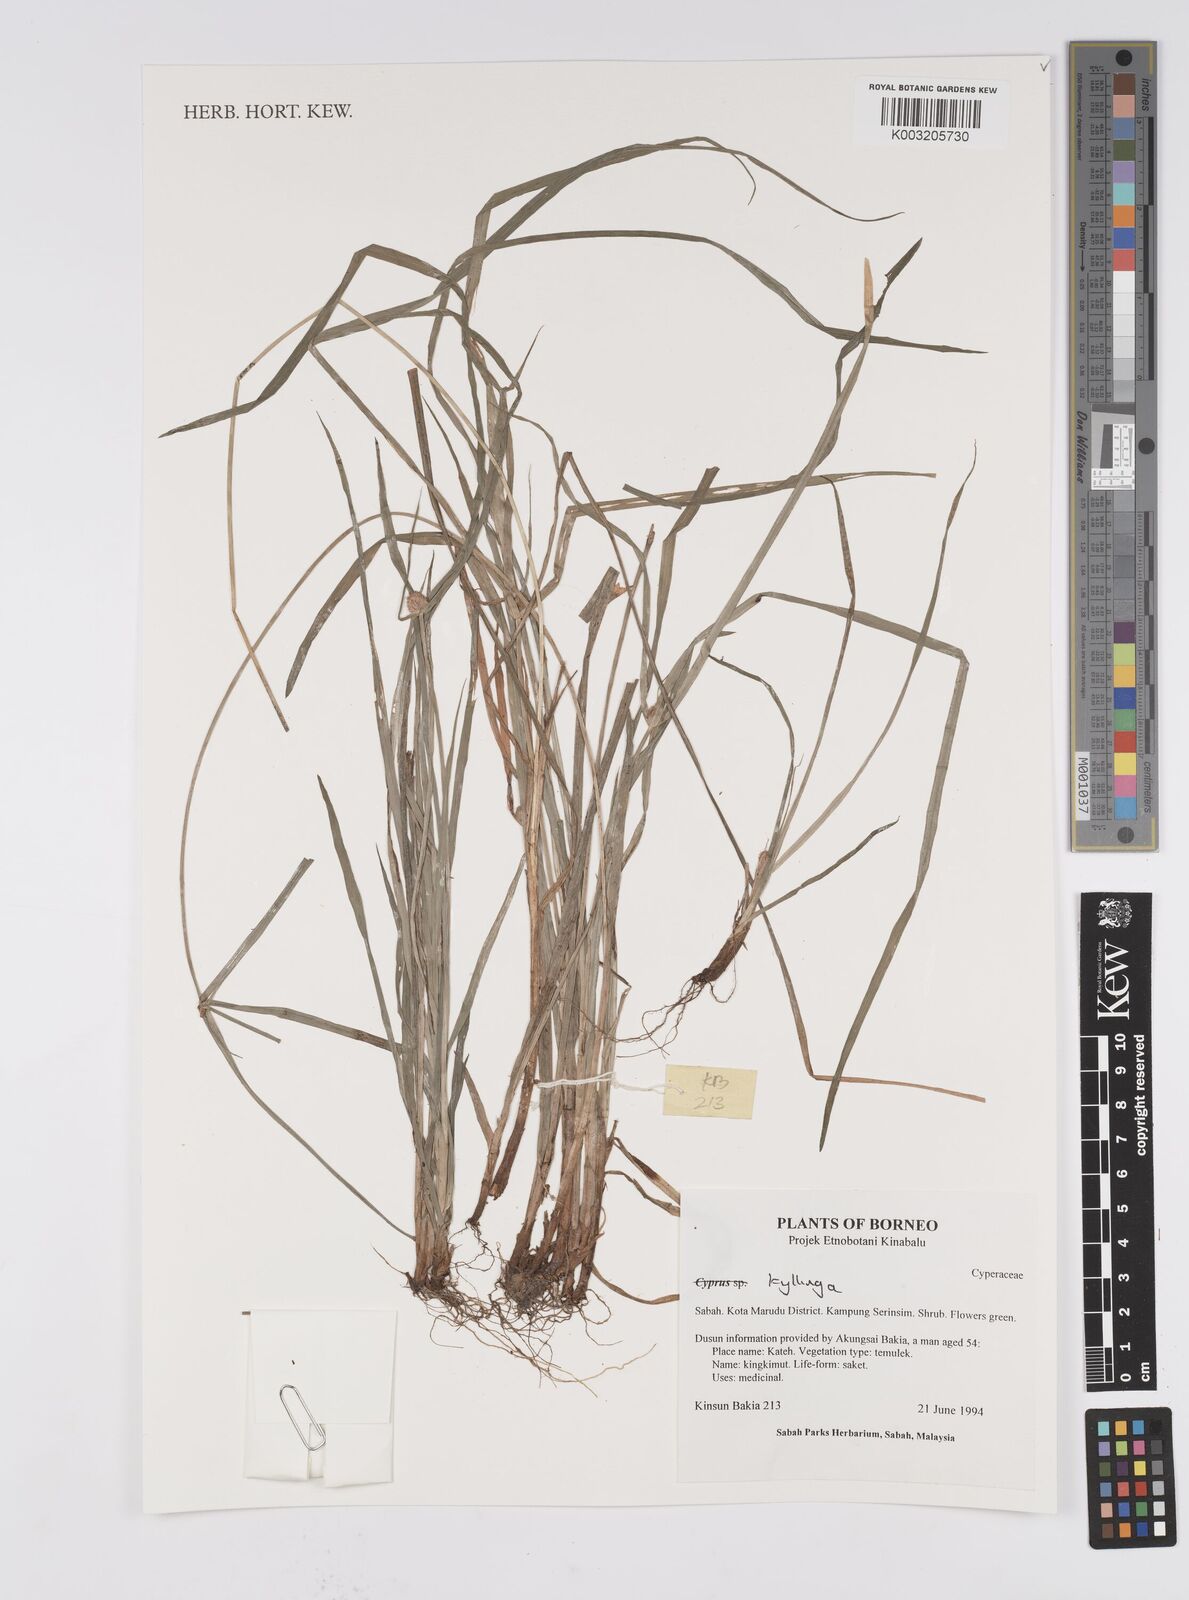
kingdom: Plantae
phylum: Tracheophyta
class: Liliopsida
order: Poales
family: Cyperaceae
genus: Cyperus
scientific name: Cyperus
